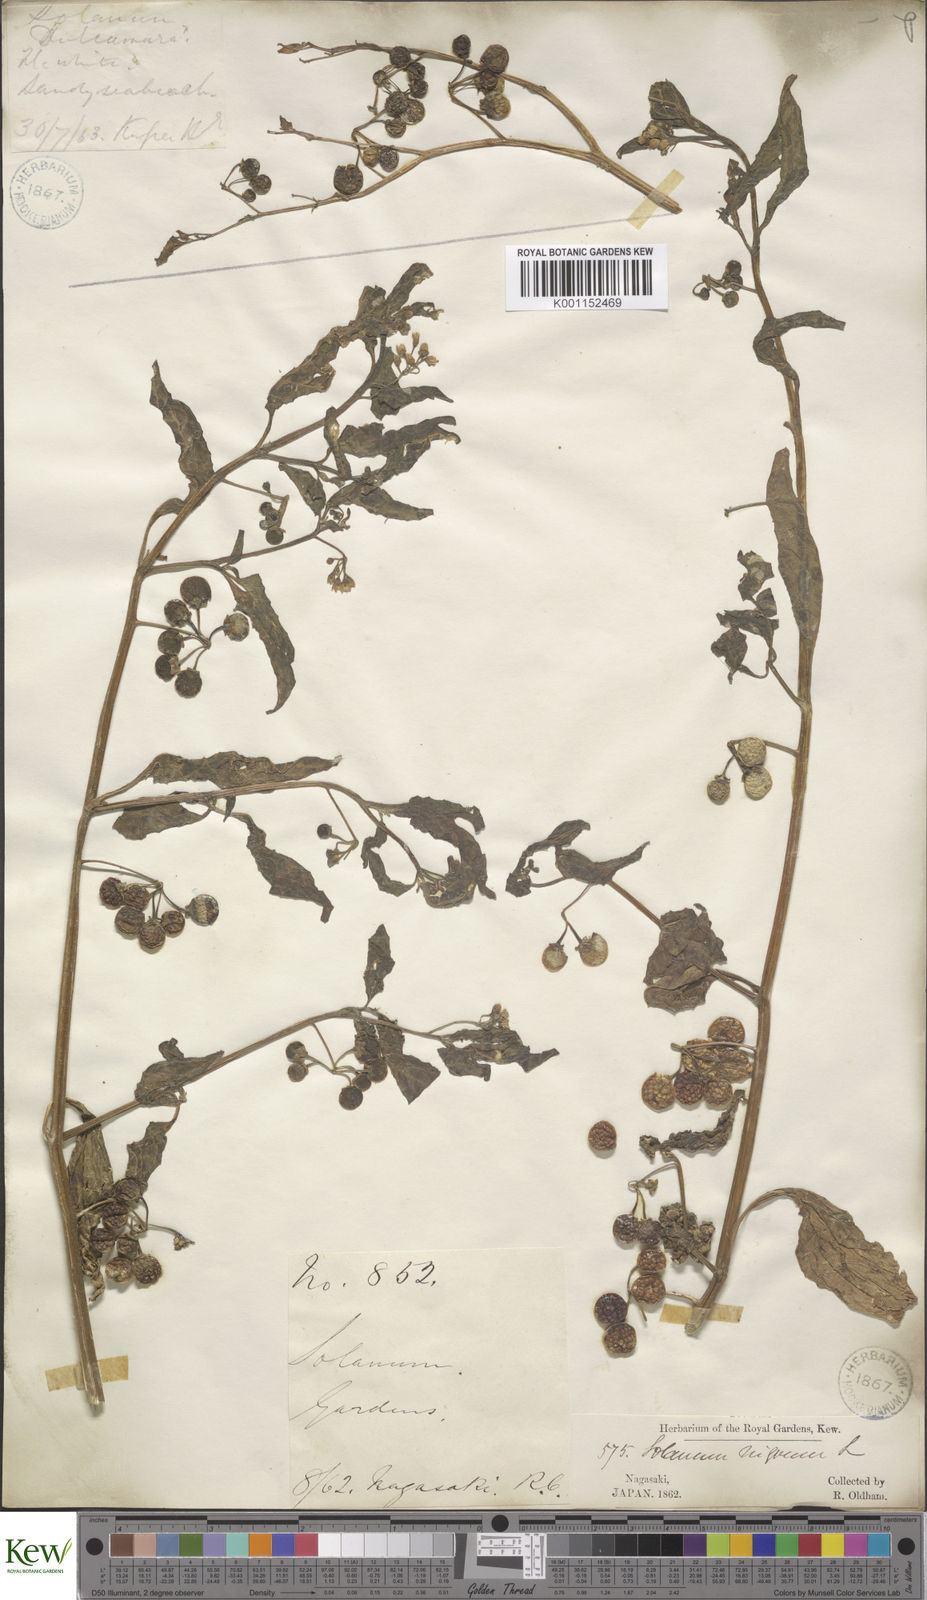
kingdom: Plantae
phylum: Tracheophyta
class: Magnoliopsida
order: Solanales
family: Solanaceae
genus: Solanum
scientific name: Solanum
